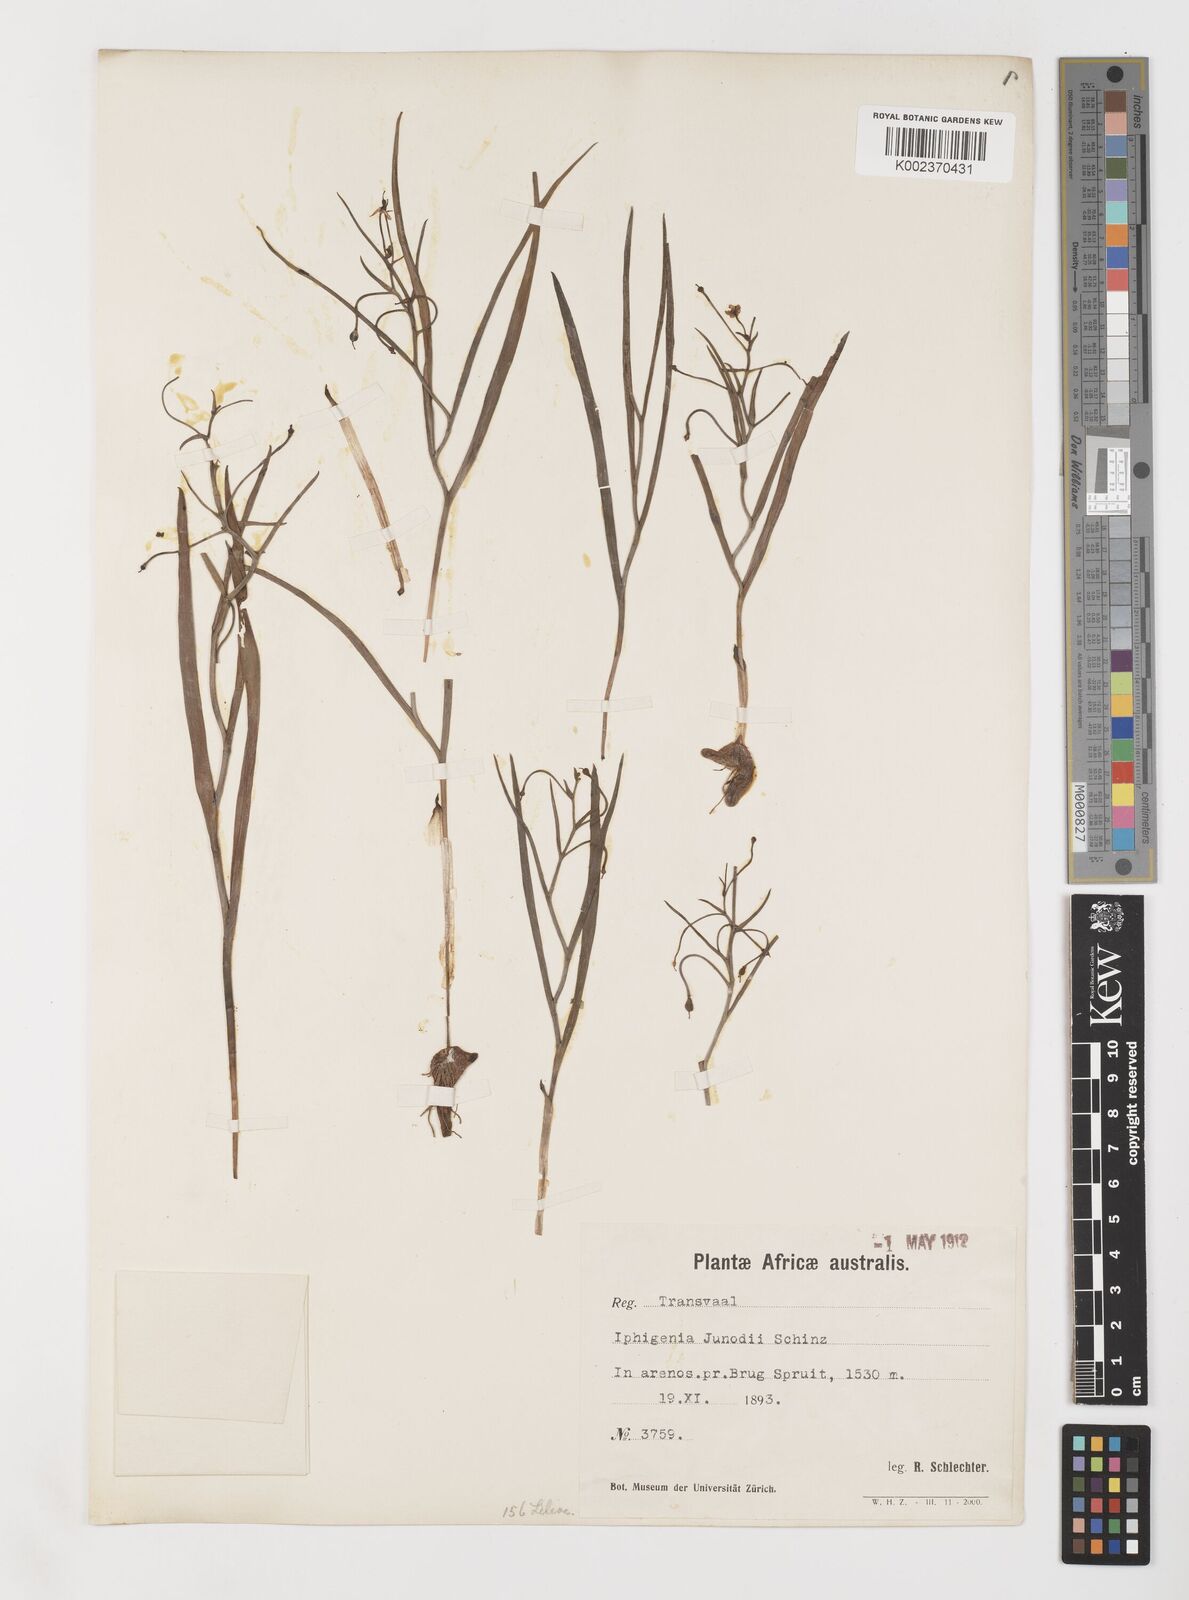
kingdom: Plantae
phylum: Tracheophyta
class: Liliopsida
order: Liliales
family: Colchicaceae
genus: Camptorrhiza
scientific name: Camptorrhiza strumosa
